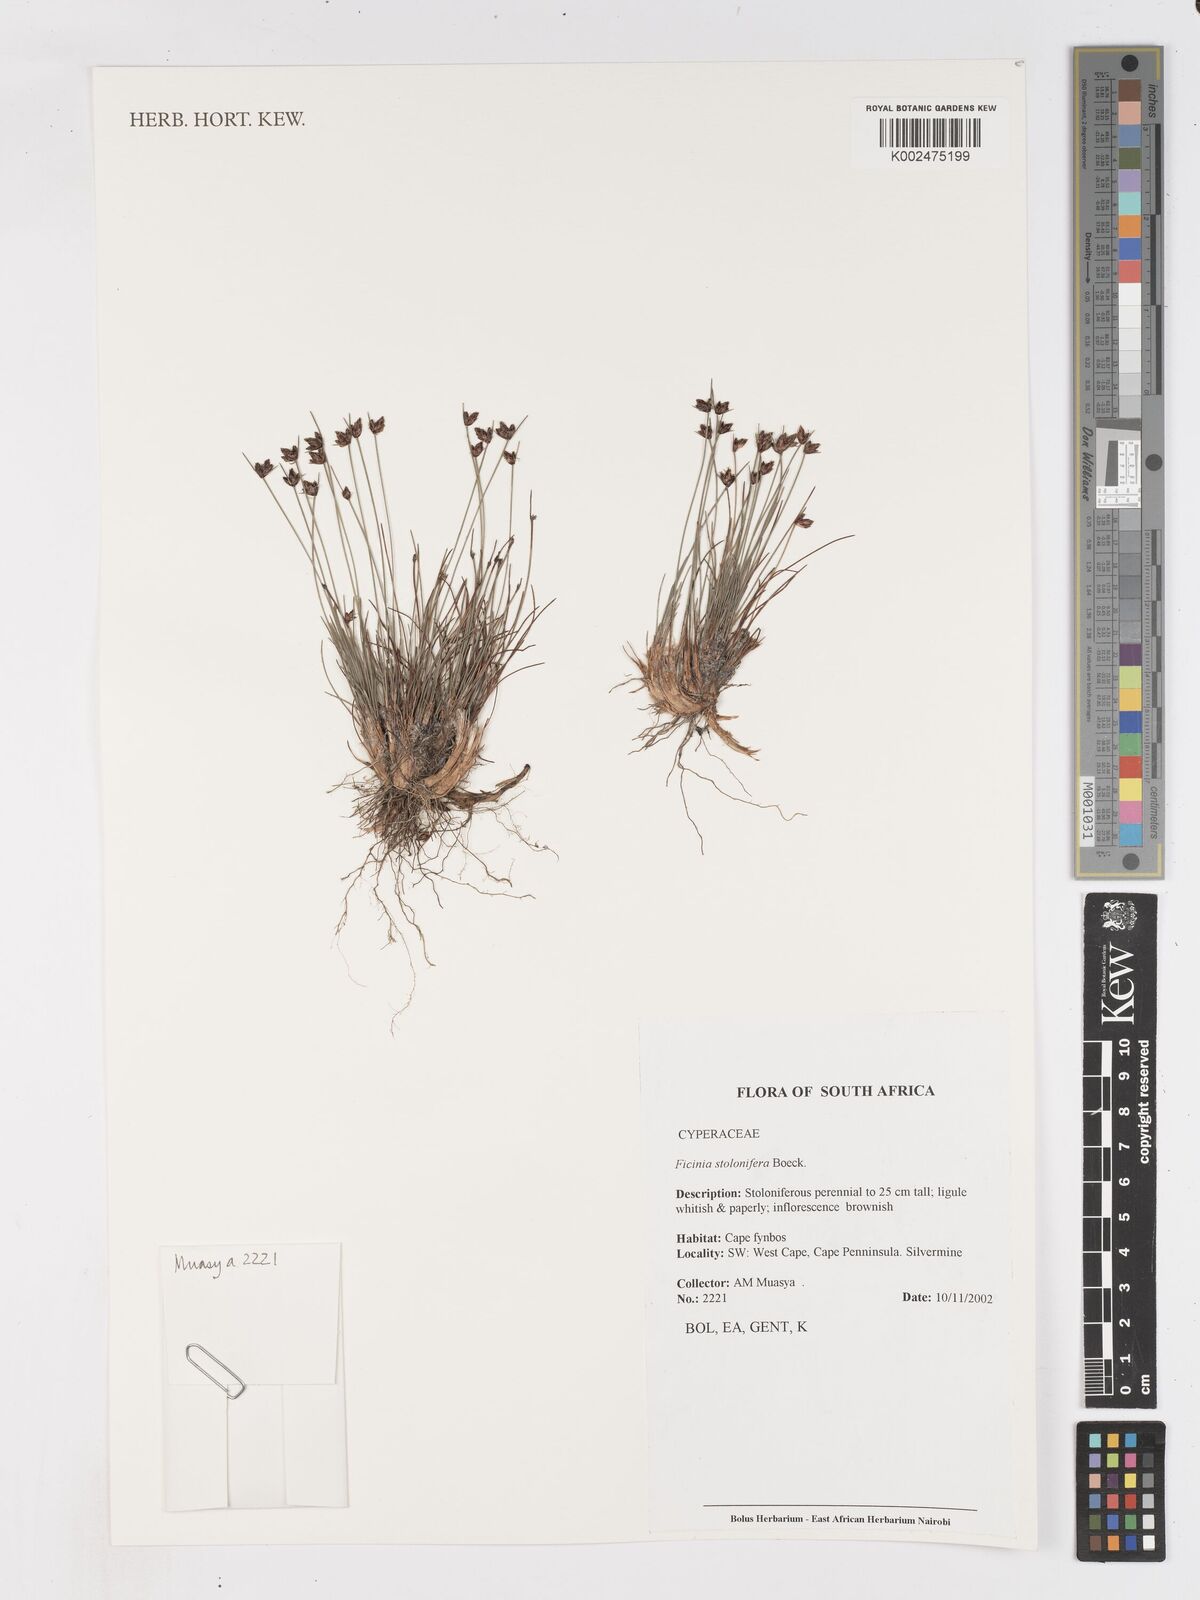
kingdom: Plantae
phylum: Tracheophyta
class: Liliopsida
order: Poales
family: Cyperaceae
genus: Ficinia
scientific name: Ficinia stolonifera
